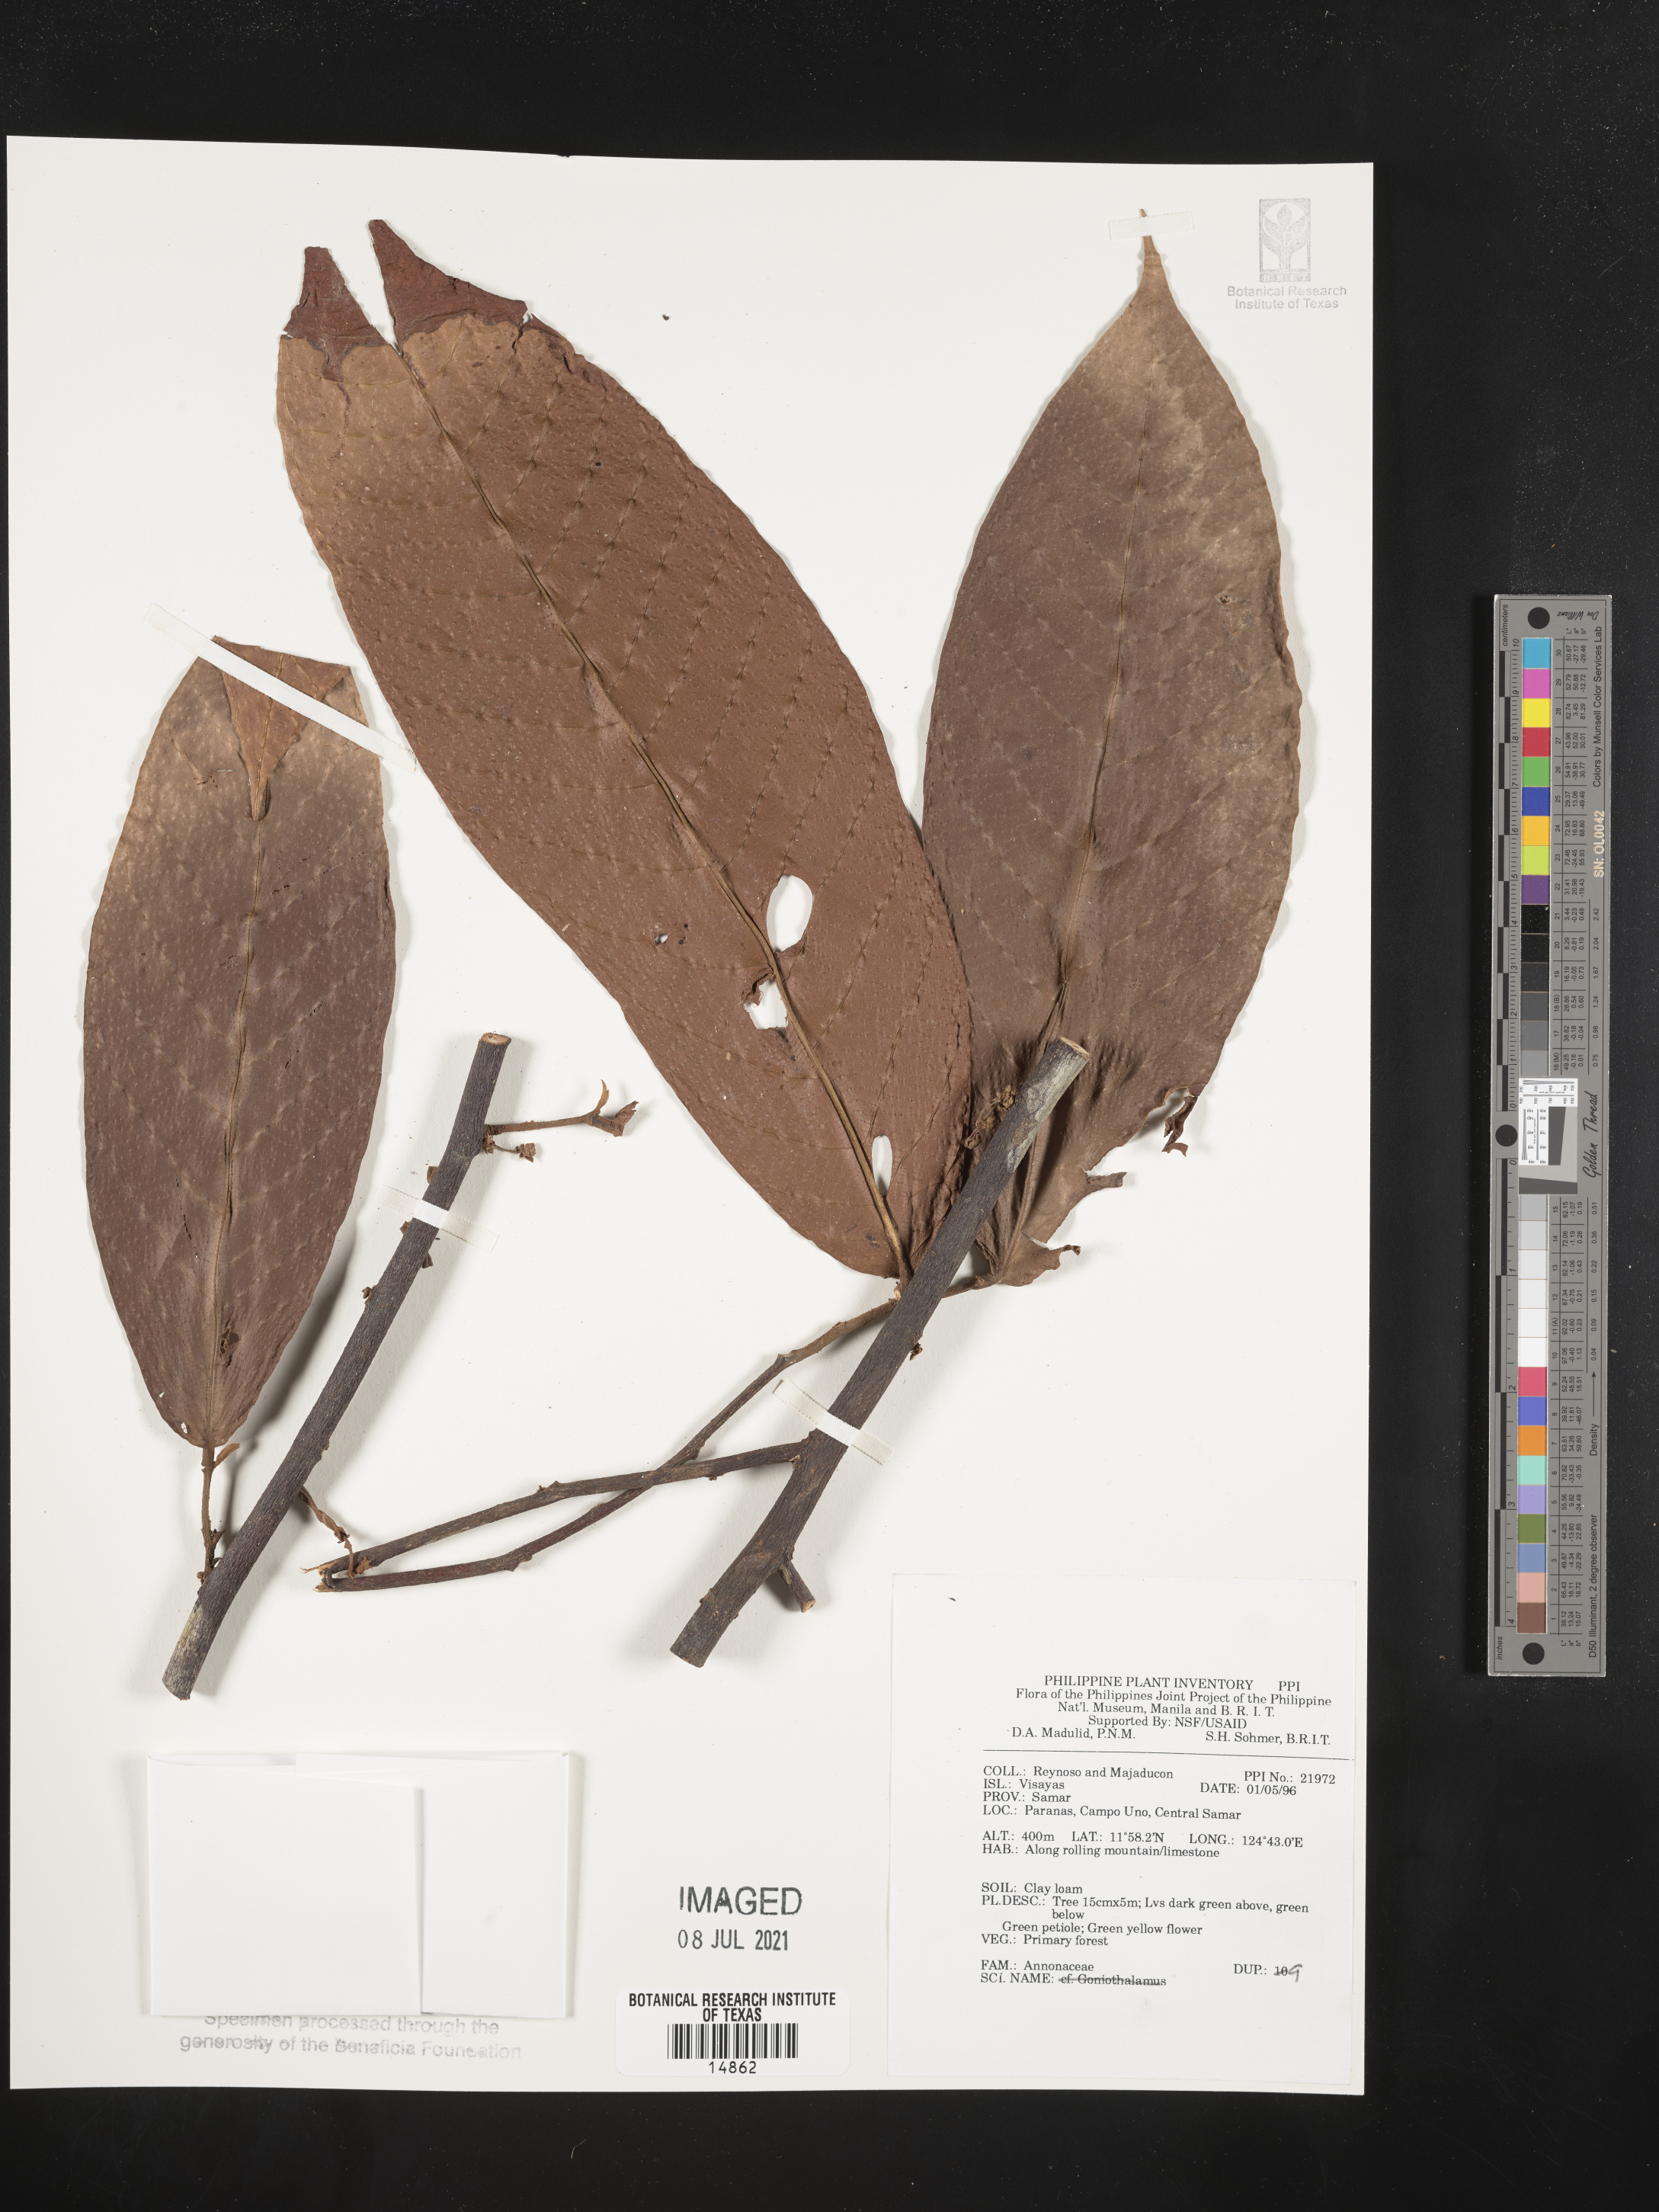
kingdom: Plantae
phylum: Tracheophyta
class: Magnoliopsida
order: Magnoliales
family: Annonaceae
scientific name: Annonaceae
